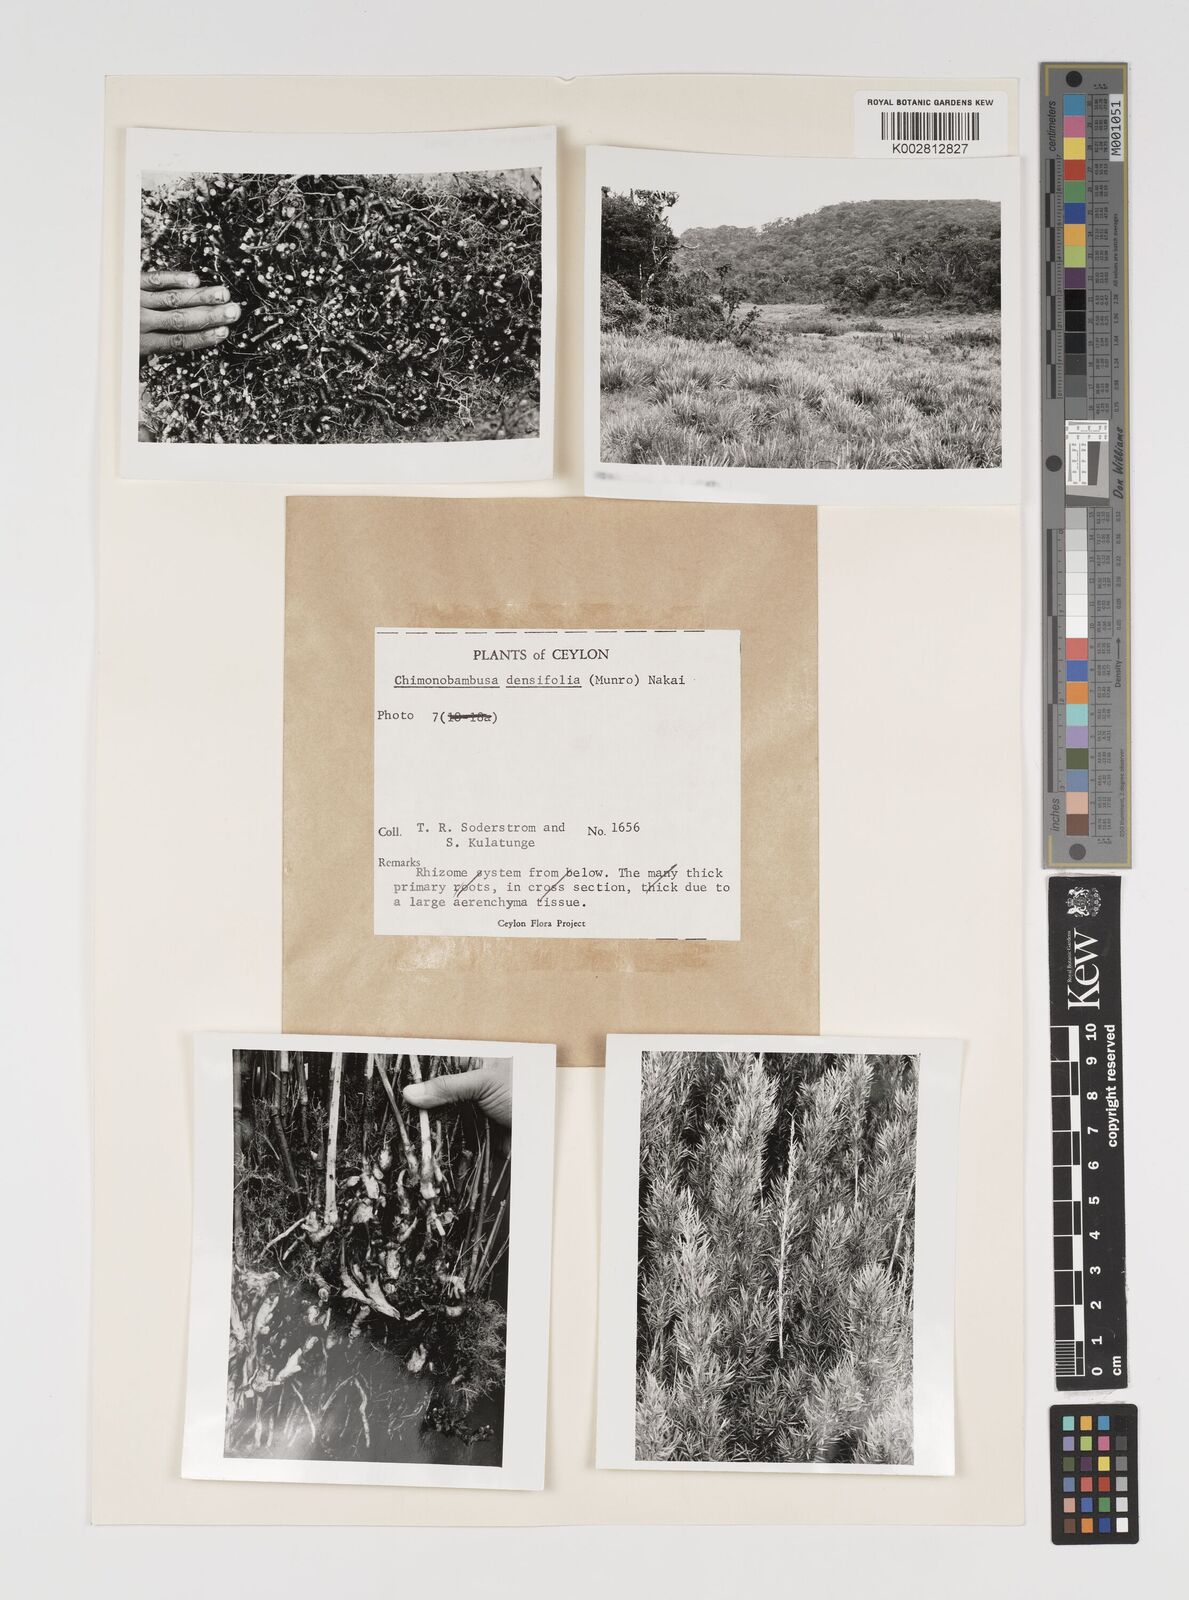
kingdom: Plantae
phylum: Tracheophyta
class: Liliopsida
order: Poales
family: Poaceae
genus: Brachystachyum
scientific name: Brachystachyum densiflorum
